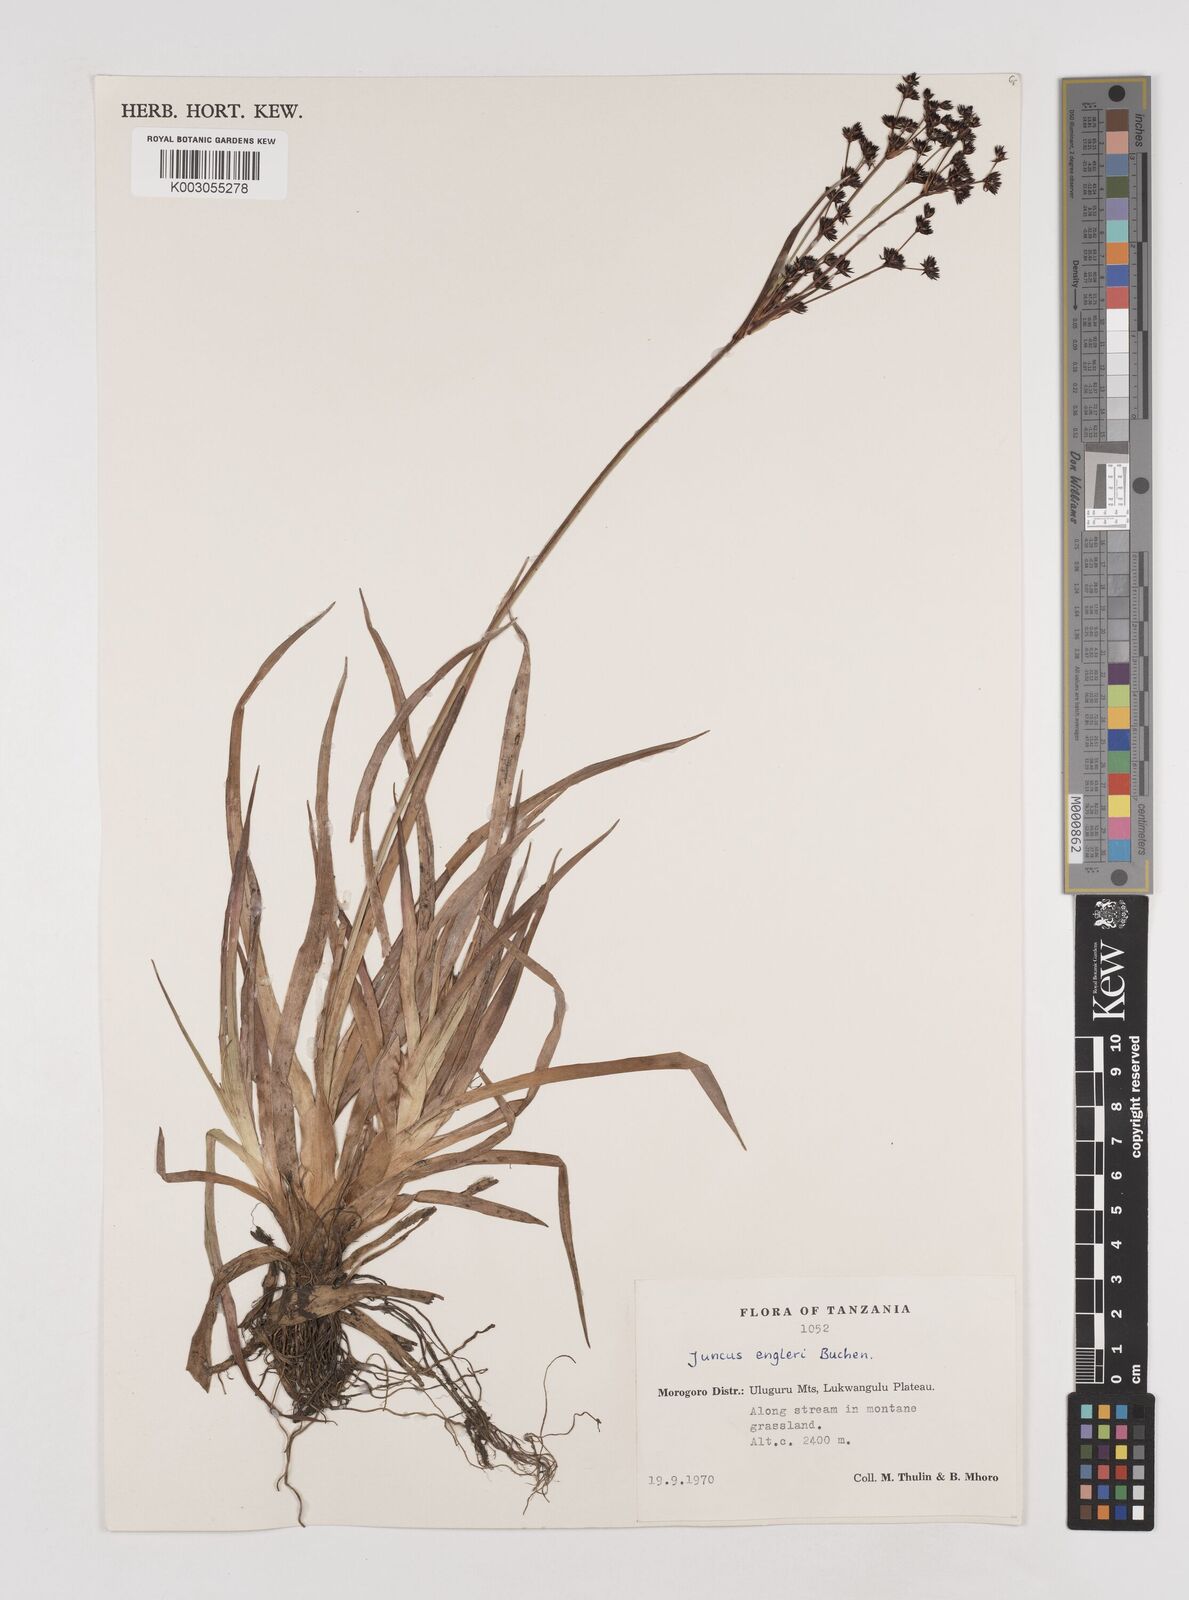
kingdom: Plantae
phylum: Tracheophyta
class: Liliopsida
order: Poales
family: Juncaceae
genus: Juncus
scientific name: Juncus engleri
